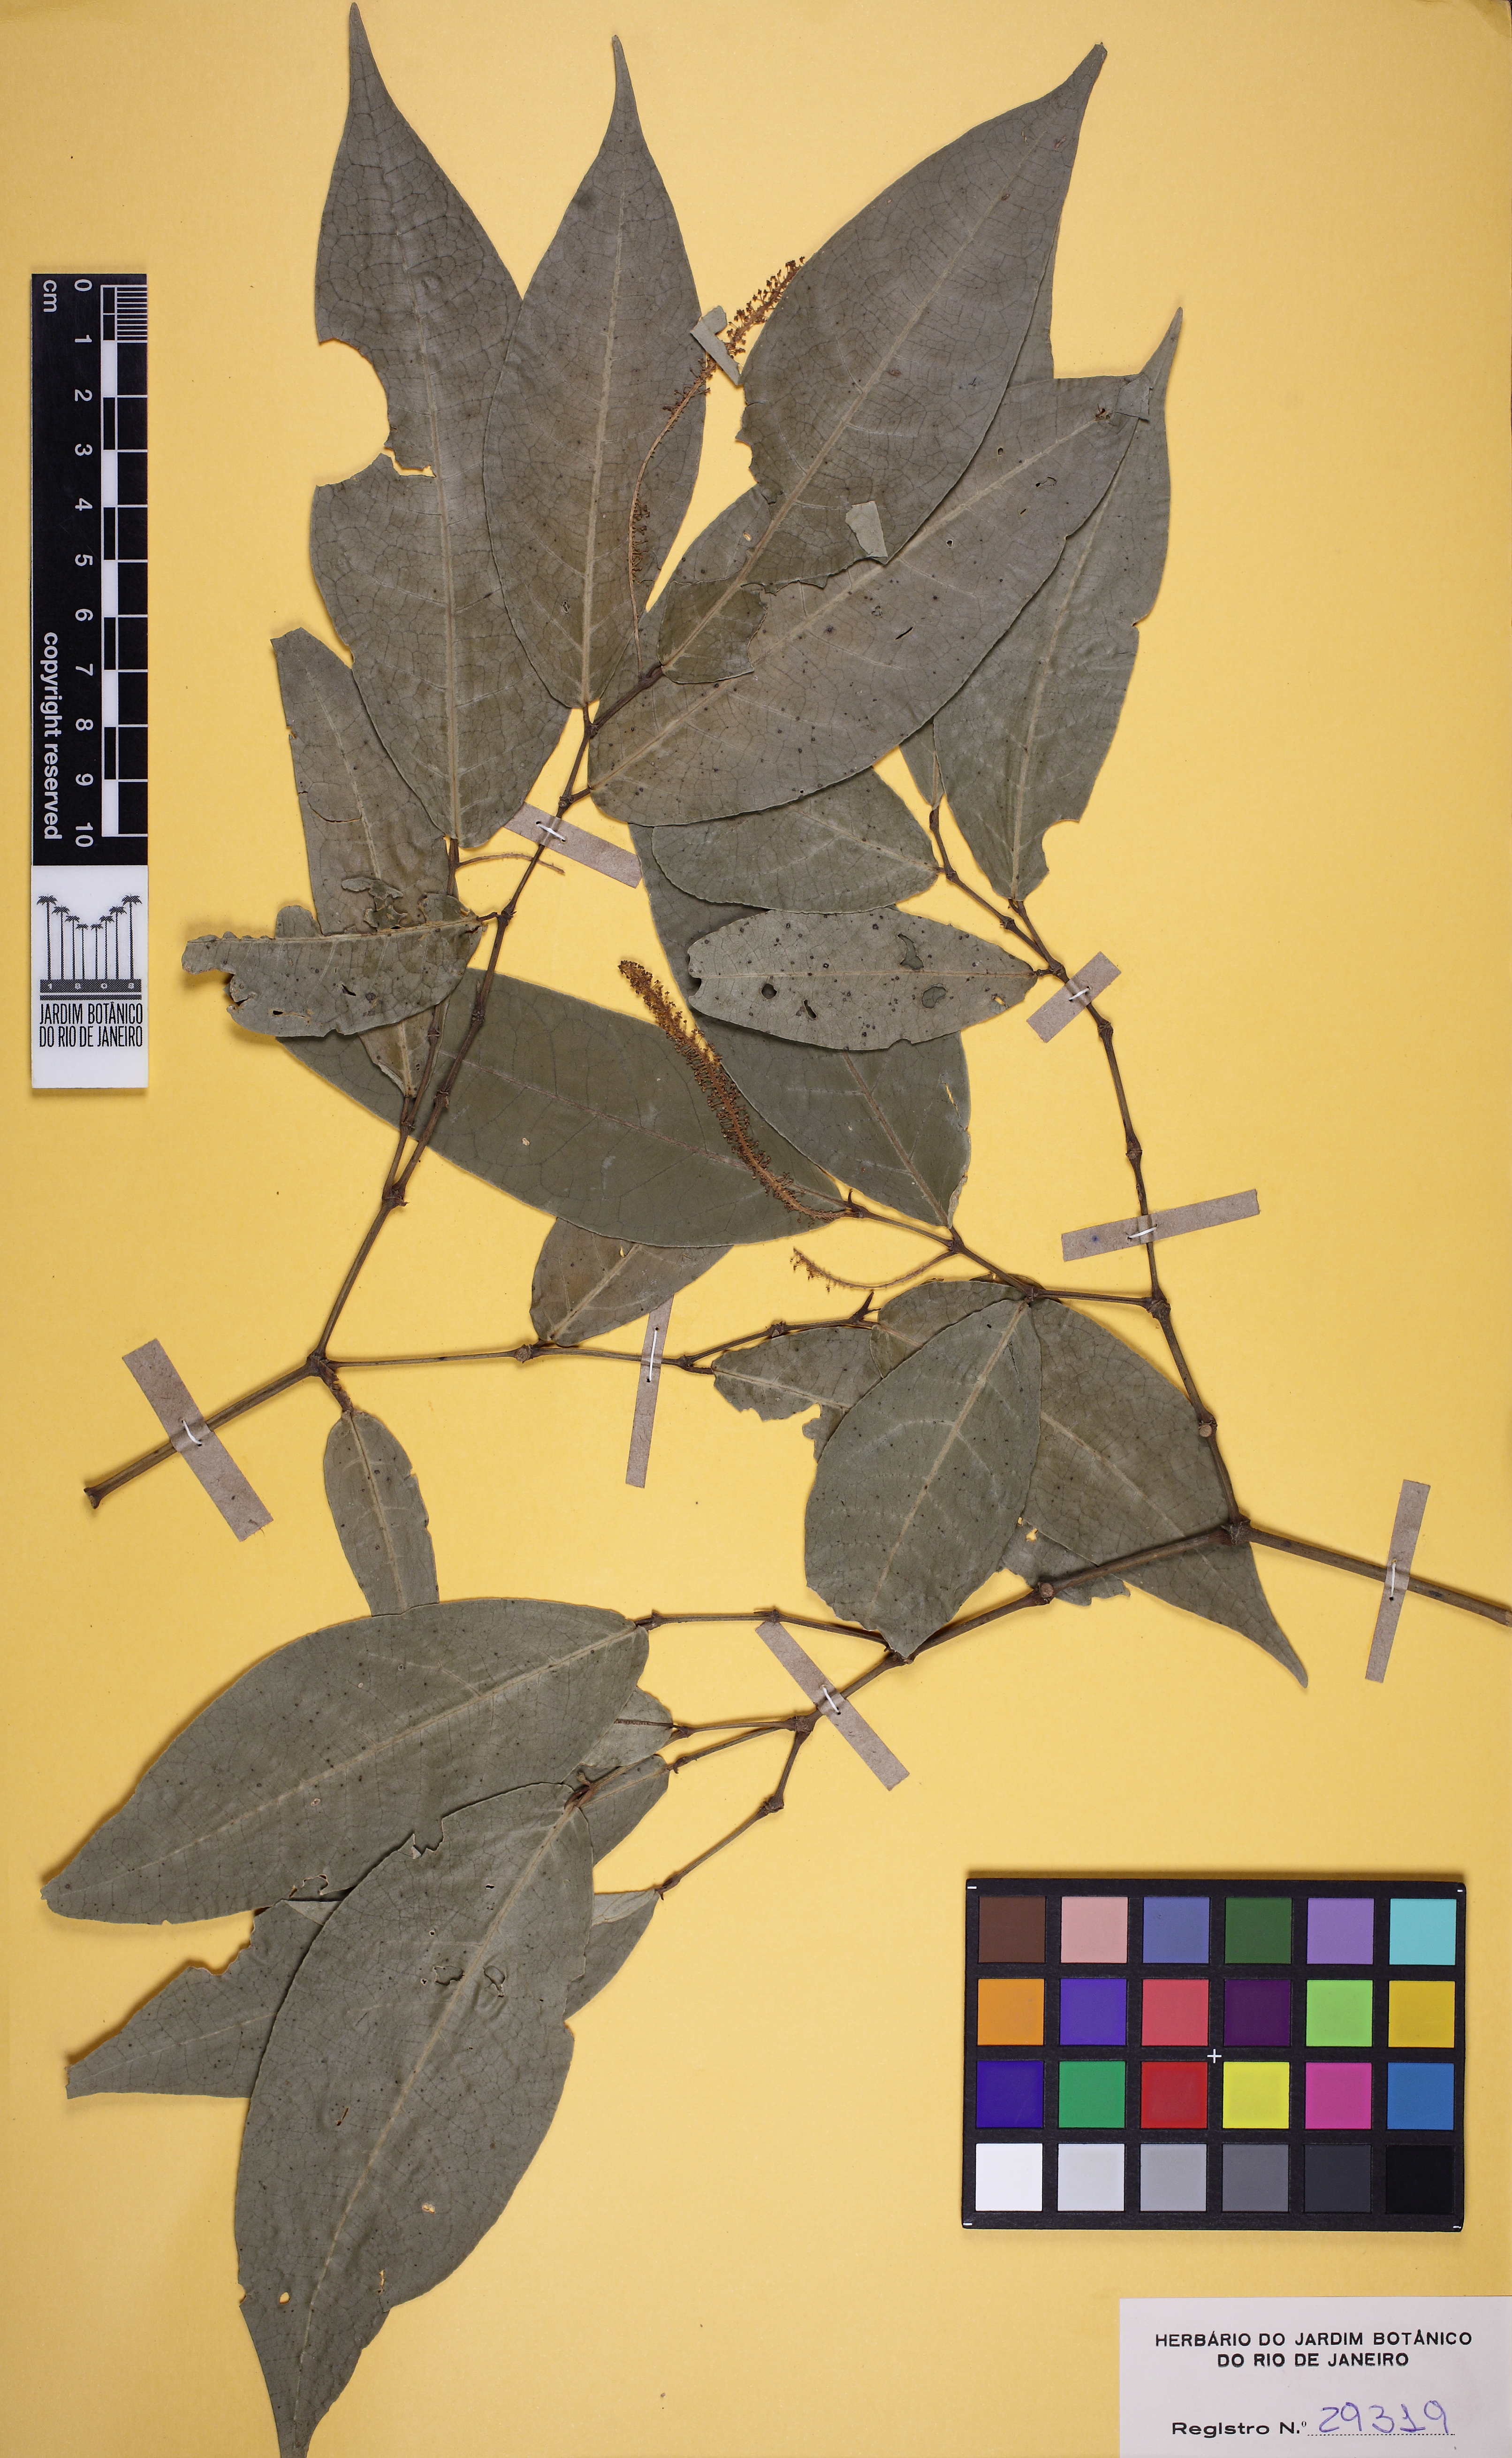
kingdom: Plantae
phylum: Tracheophyta
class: Magnoliopsida
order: Piperales
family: Piperaceae
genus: Piper
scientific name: Piper anisum
